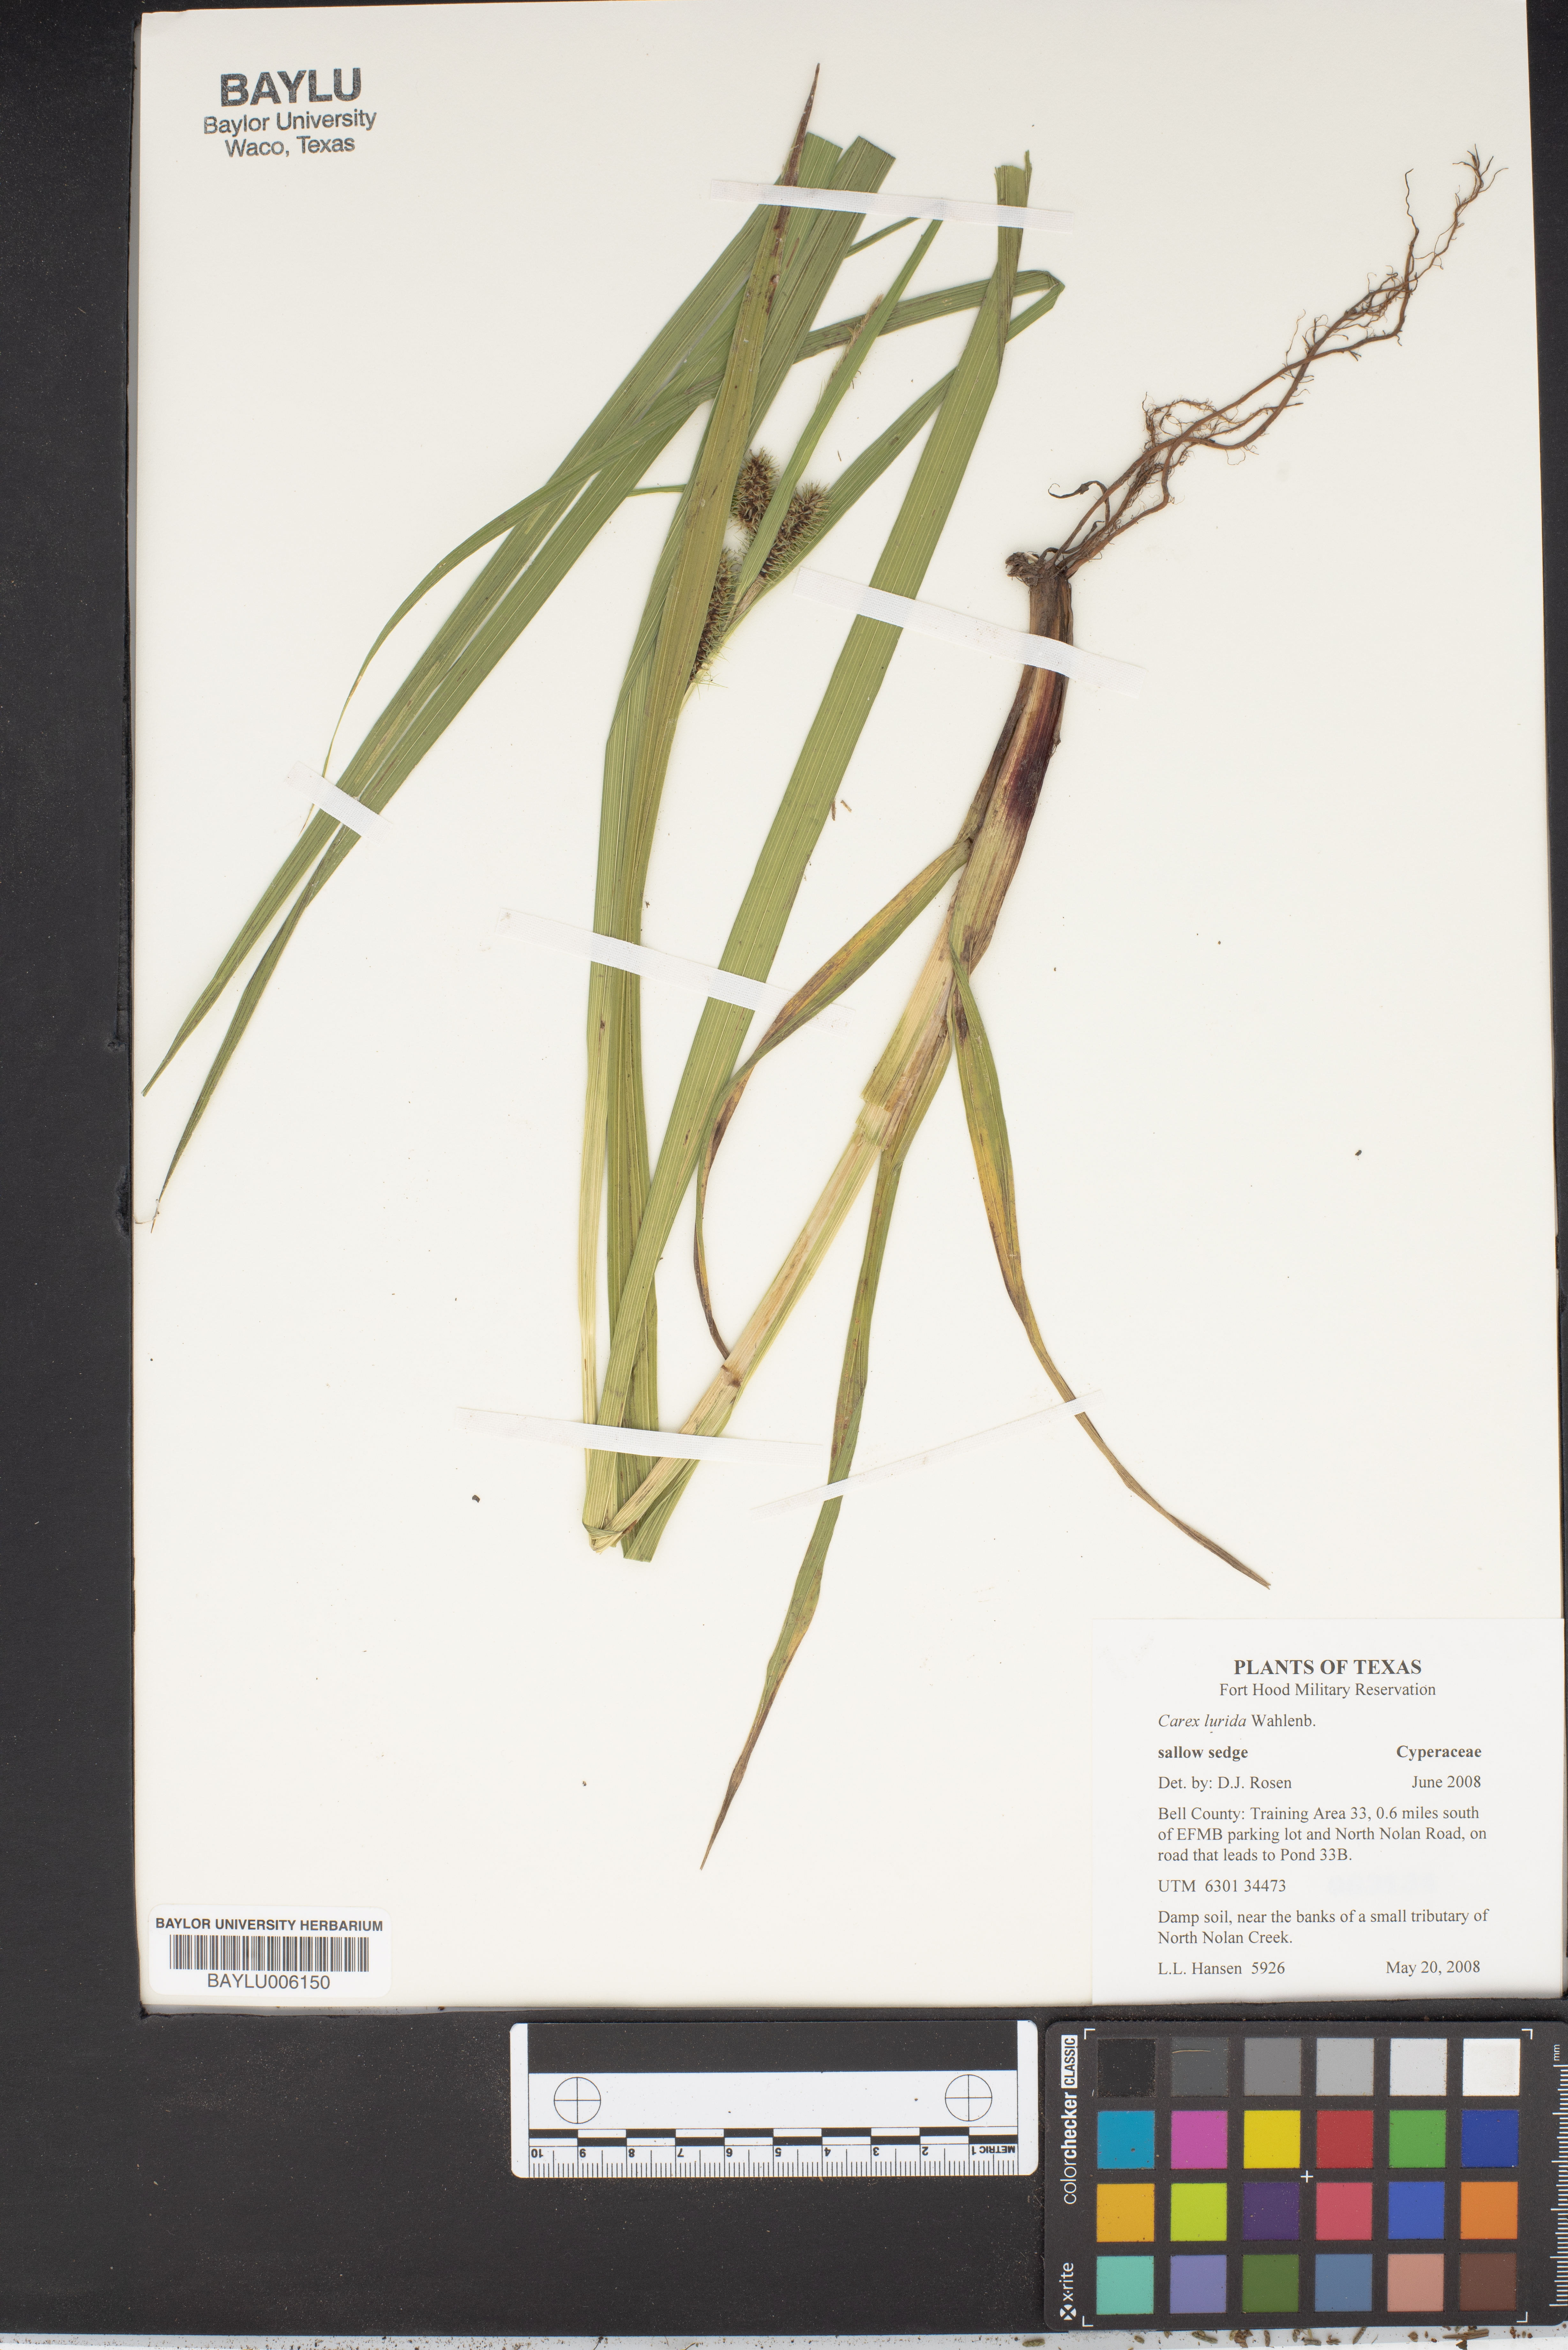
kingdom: Plantae
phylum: Tracheophyta
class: Liliopsida
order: Poales
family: Cyperaceae
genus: Carex
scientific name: Carex lurida
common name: Sallow sedge
